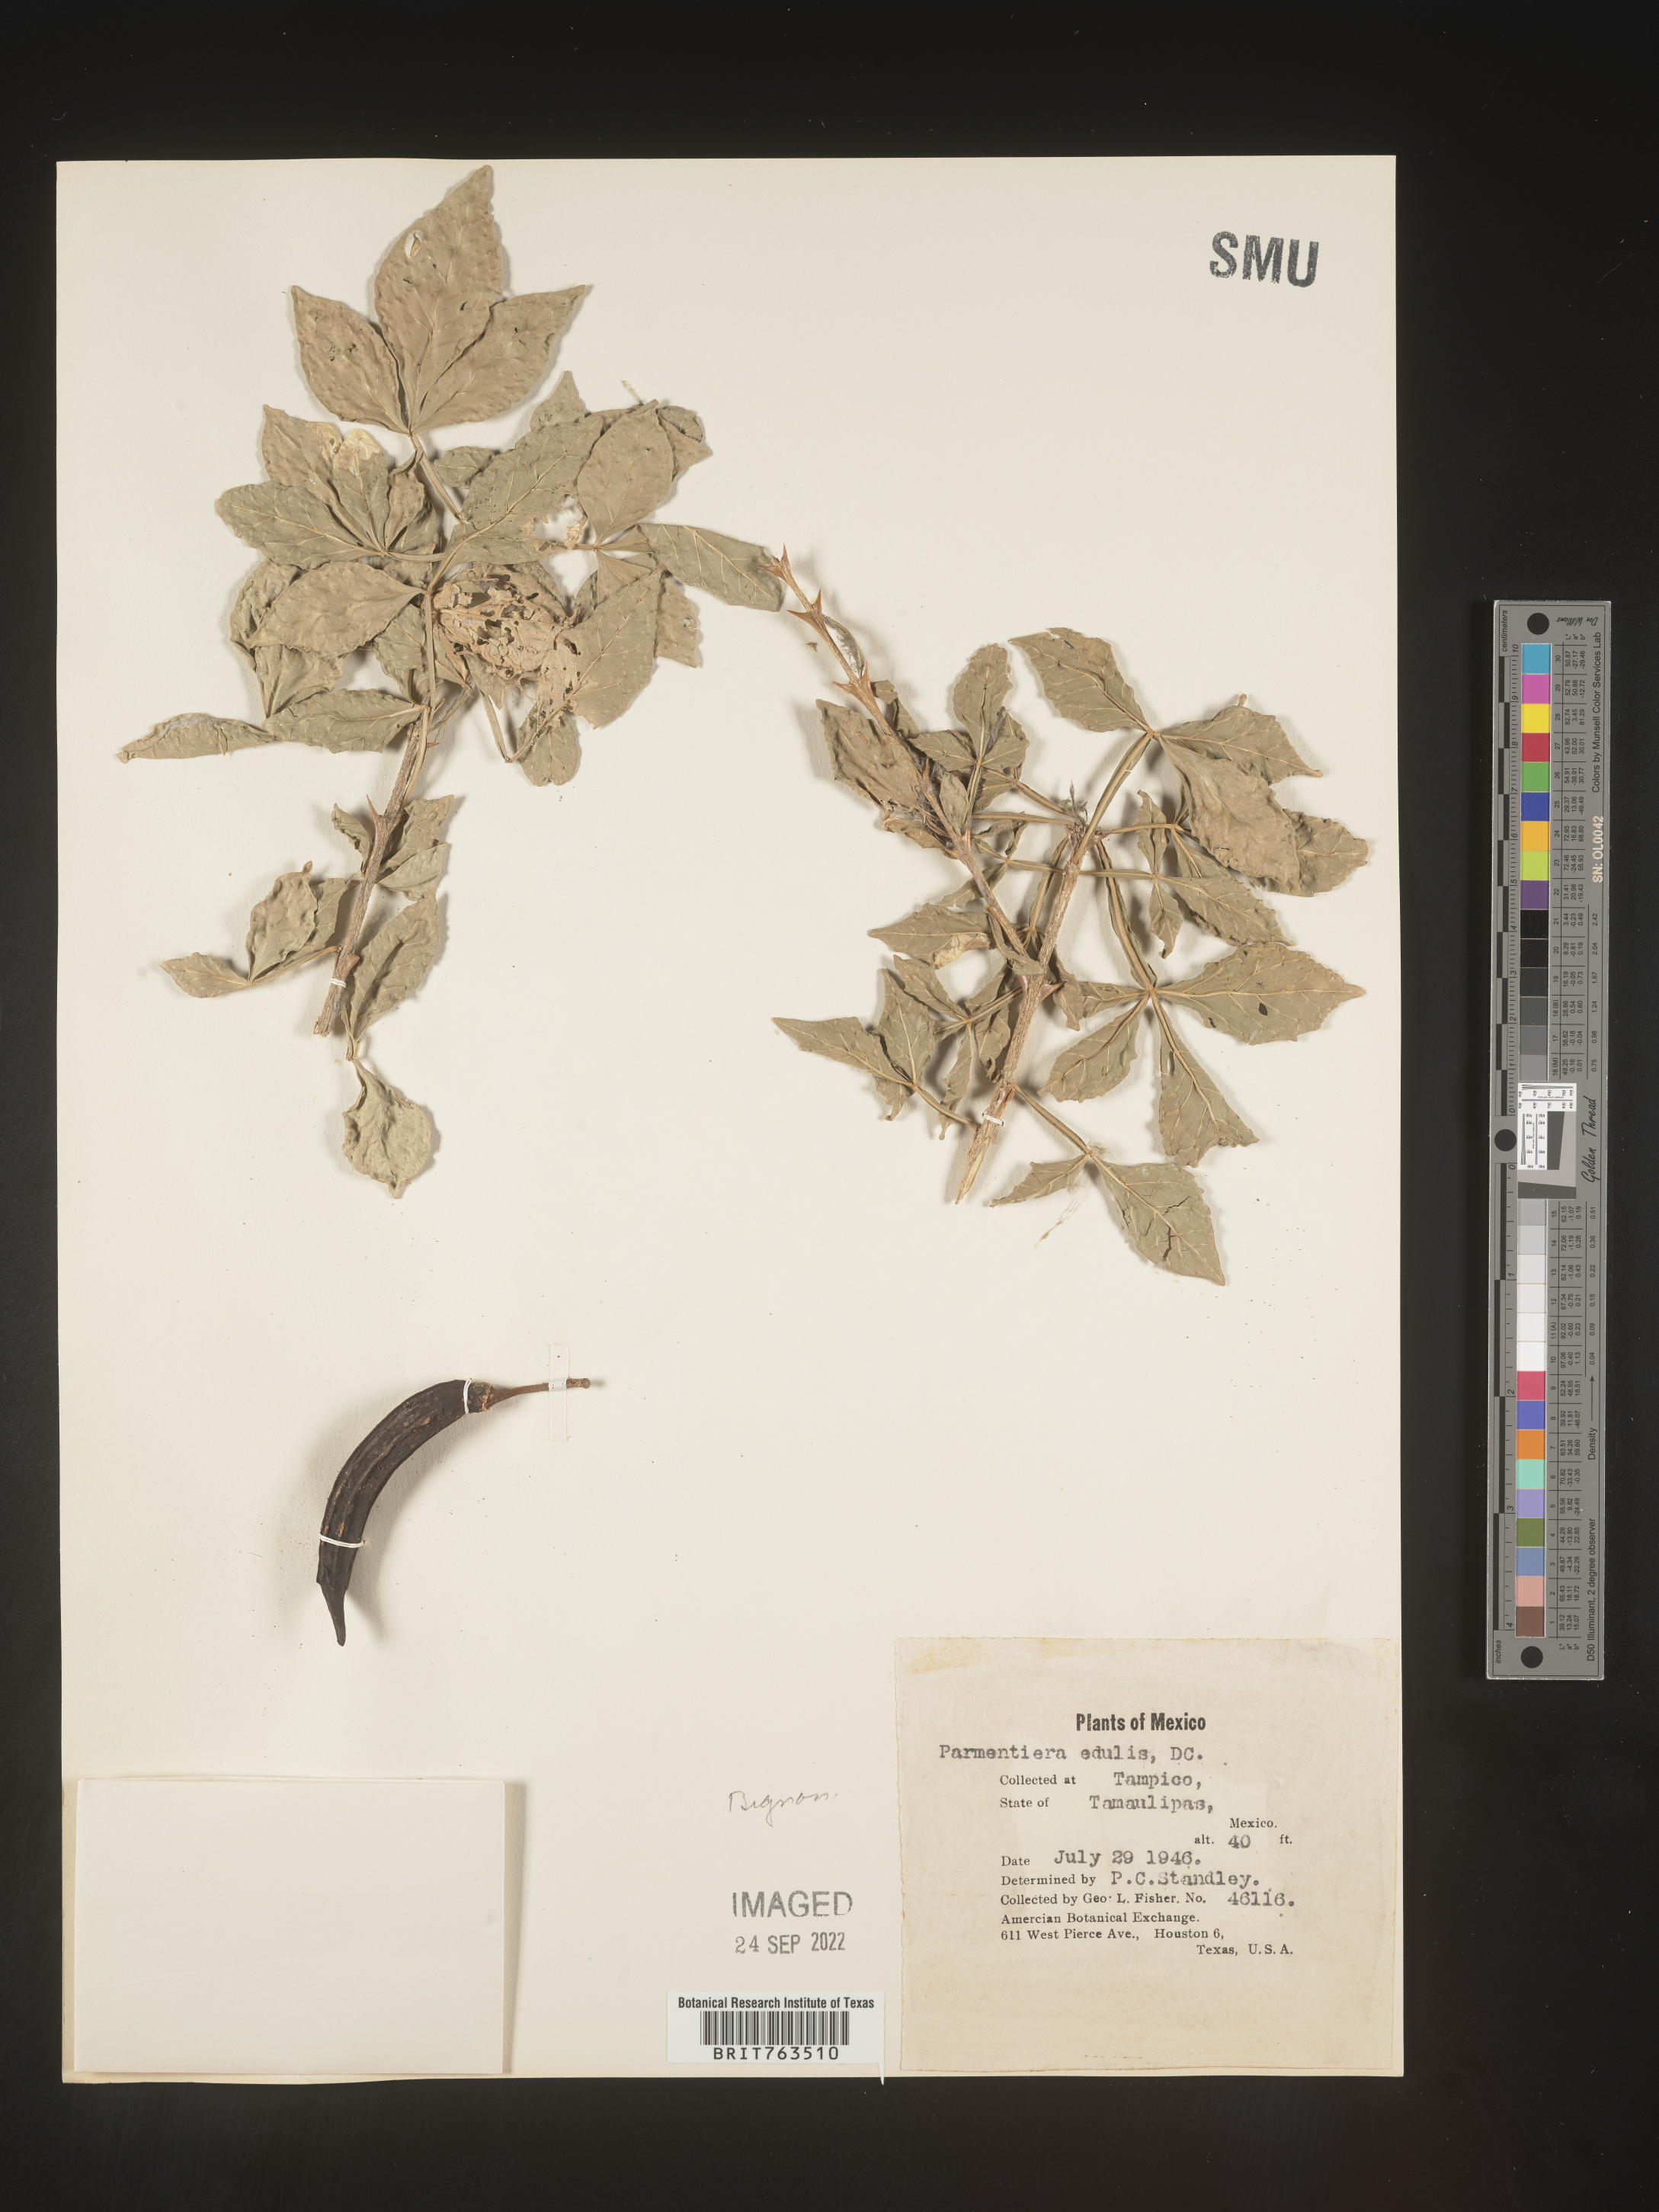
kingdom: Plantae
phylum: Tracheophyta
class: Magnoliopsida
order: Lamiales
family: Bignoniaceae
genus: Parmentiera
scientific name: Parmentiera
